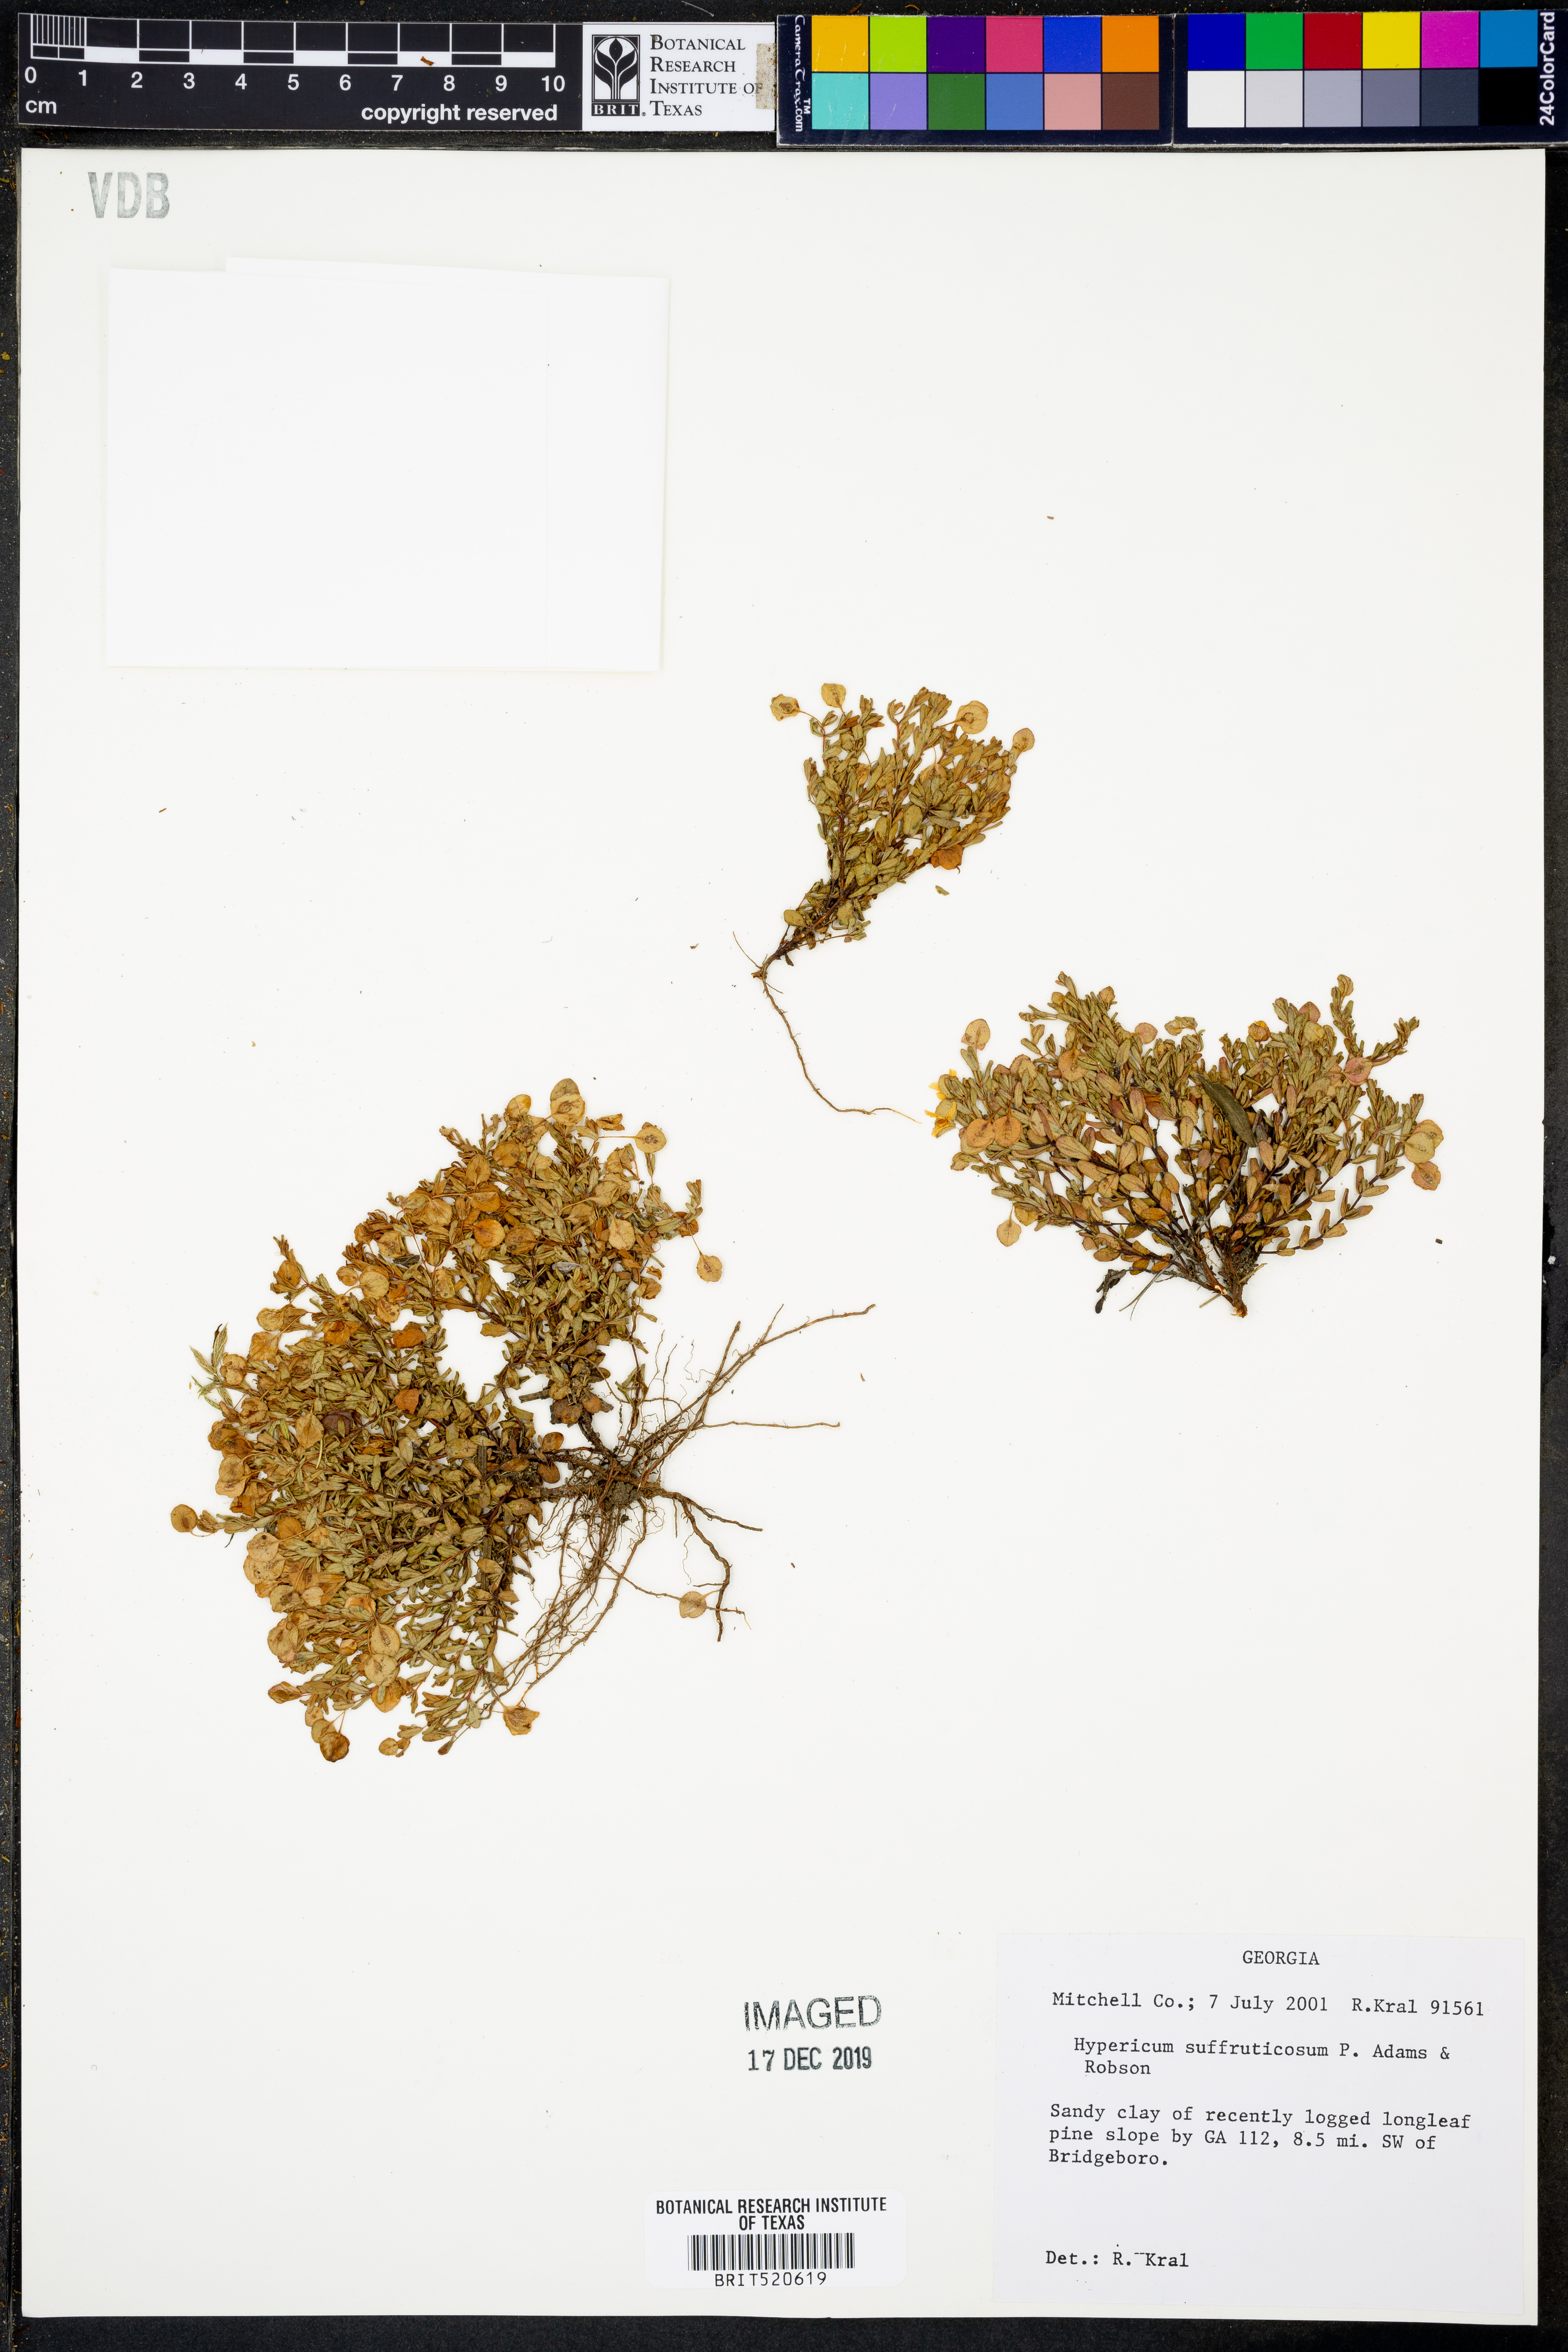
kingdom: Plantae
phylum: Tracheophyta
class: Magnoliopsida
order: Malpighiales
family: Hypericaceae
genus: Hypericum
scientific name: Hypericum suffruticosum
